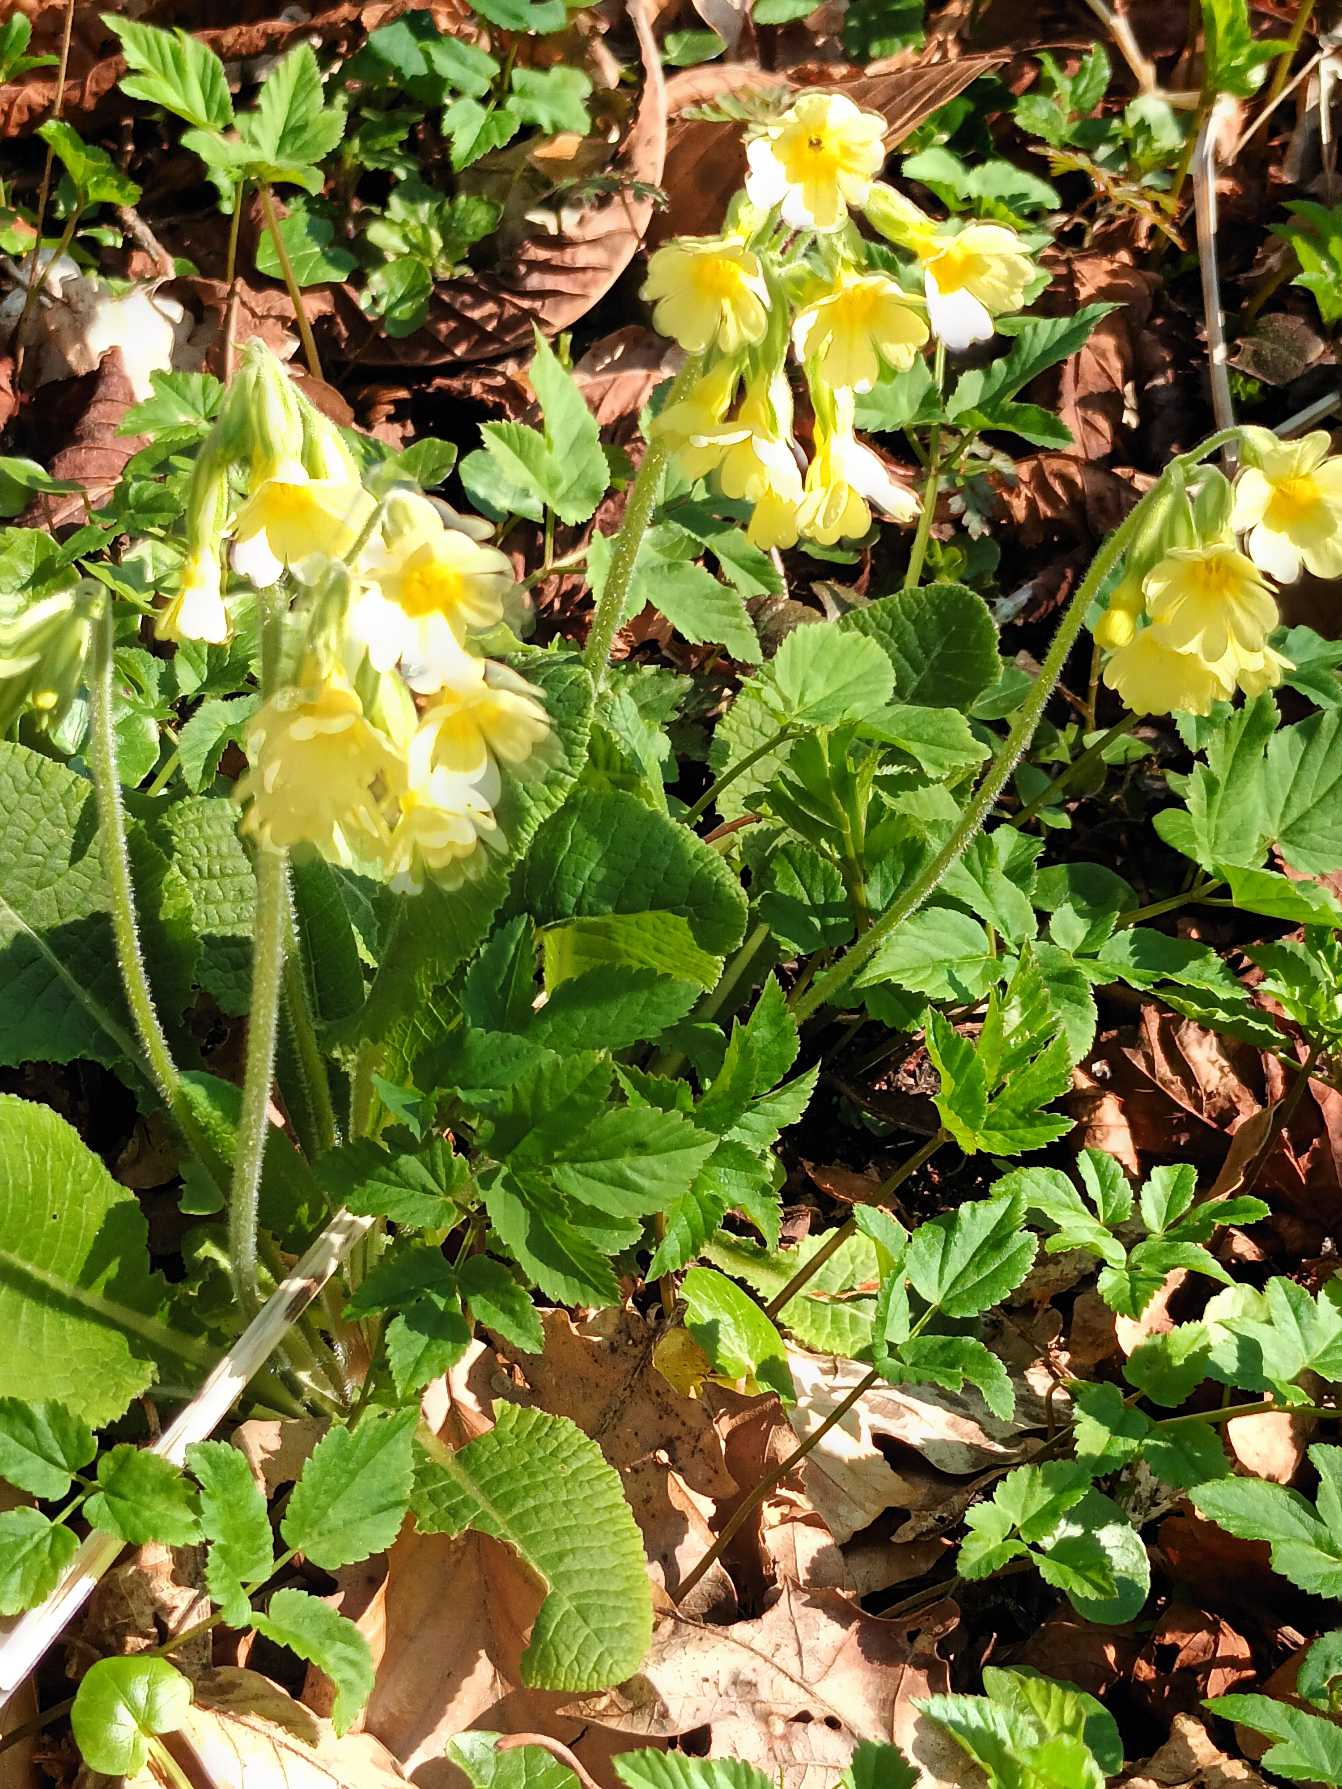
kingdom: Plantae
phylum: Tracheophyta
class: Magnoliopsida
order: Ericales
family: Primulaceae
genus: Primula
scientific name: Primula elatior
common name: Fladkravet kodriver
